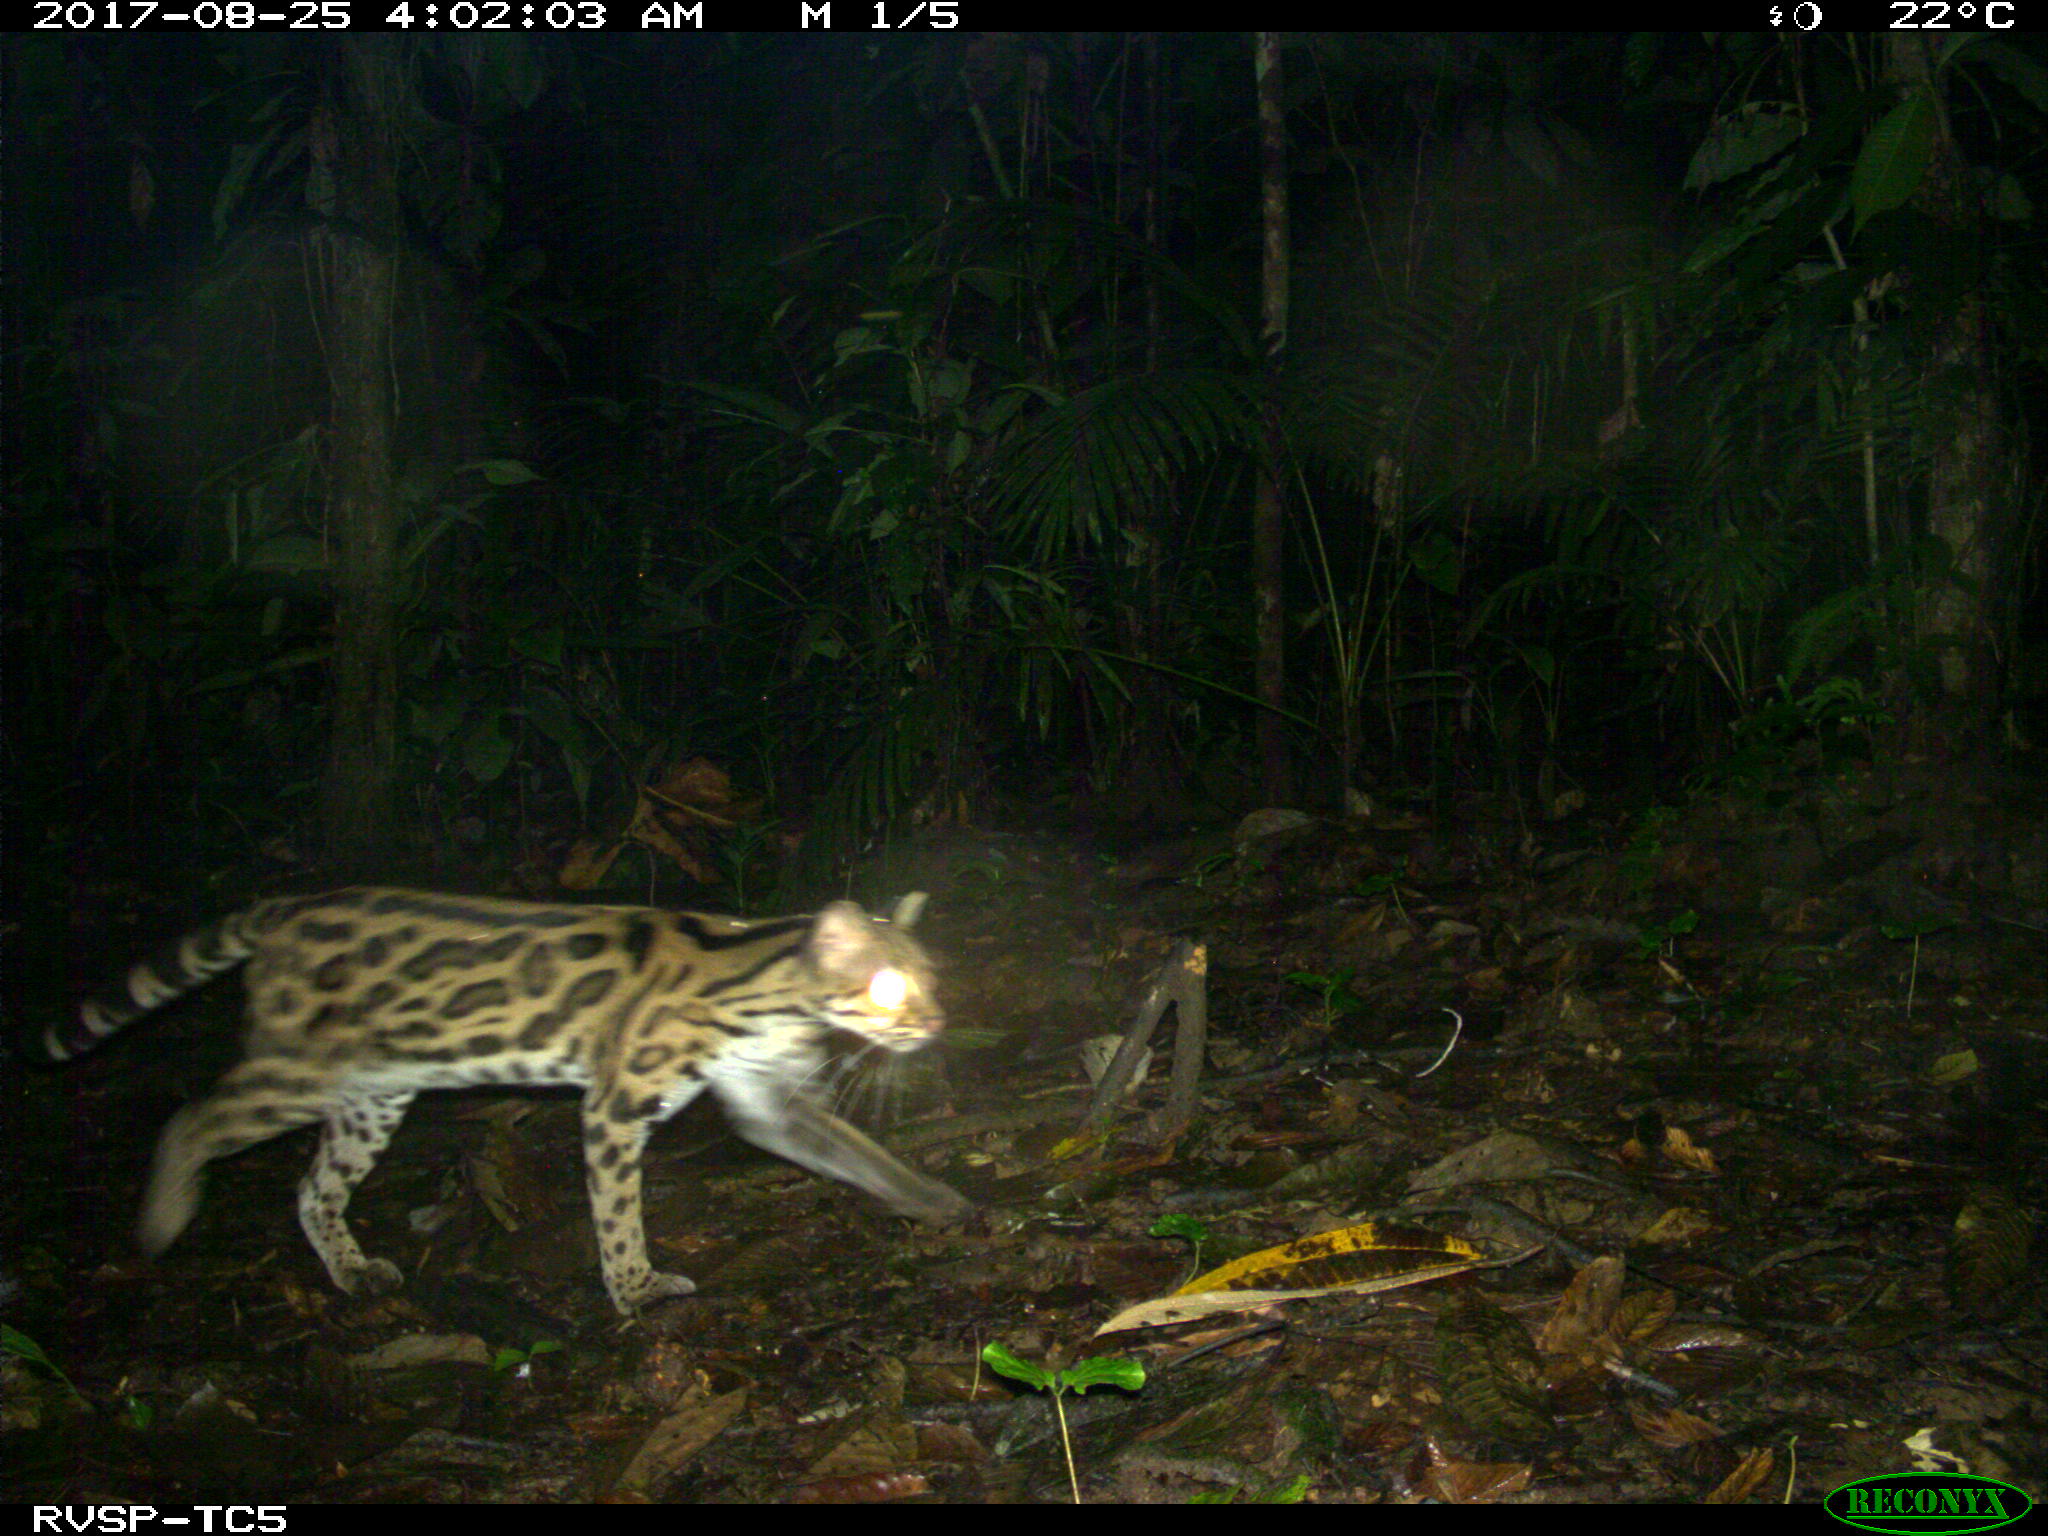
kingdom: Animalia
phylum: Chordata
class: Mammalia
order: Carnivora
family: Felidae
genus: Leopardus
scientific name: Leopardus wiedii
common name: Margay
